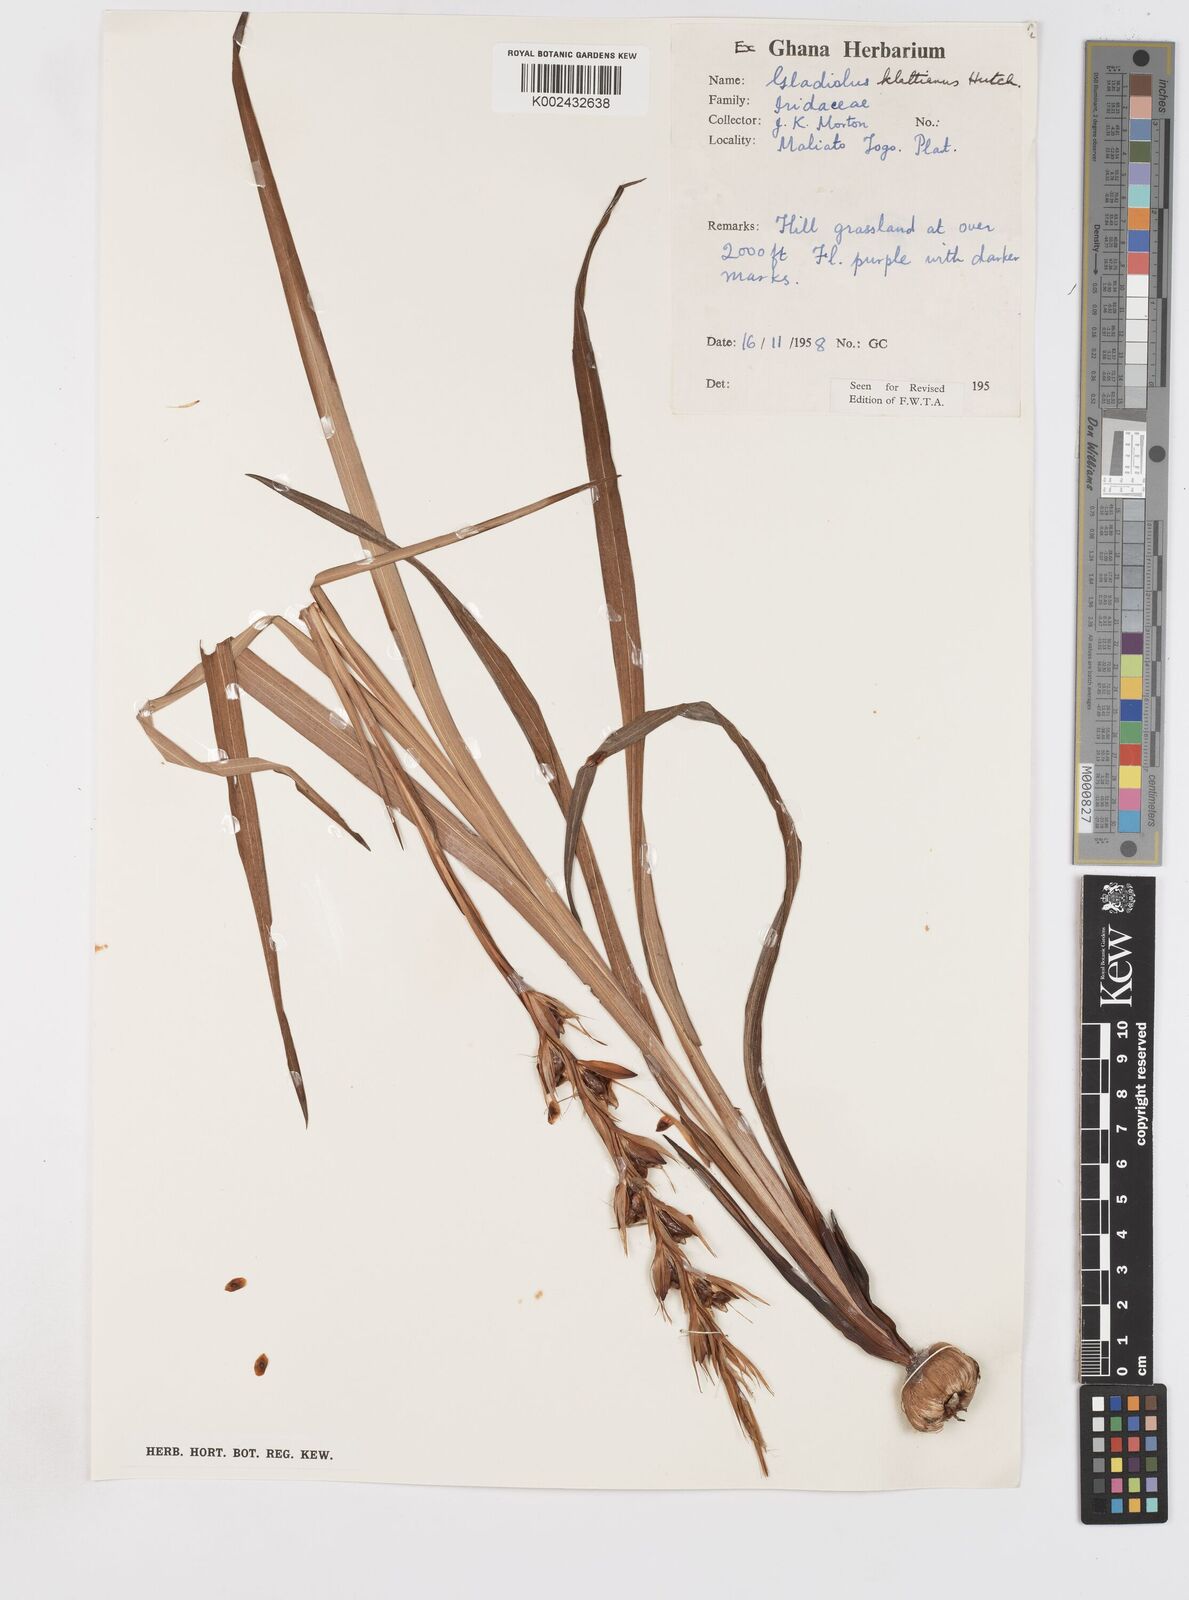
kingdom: Plantae
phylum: Tracheophyta
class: Liliopsida
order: Asparagales
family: Iridaceae
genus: Gladiolus
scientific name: Gladiolus gregarius
